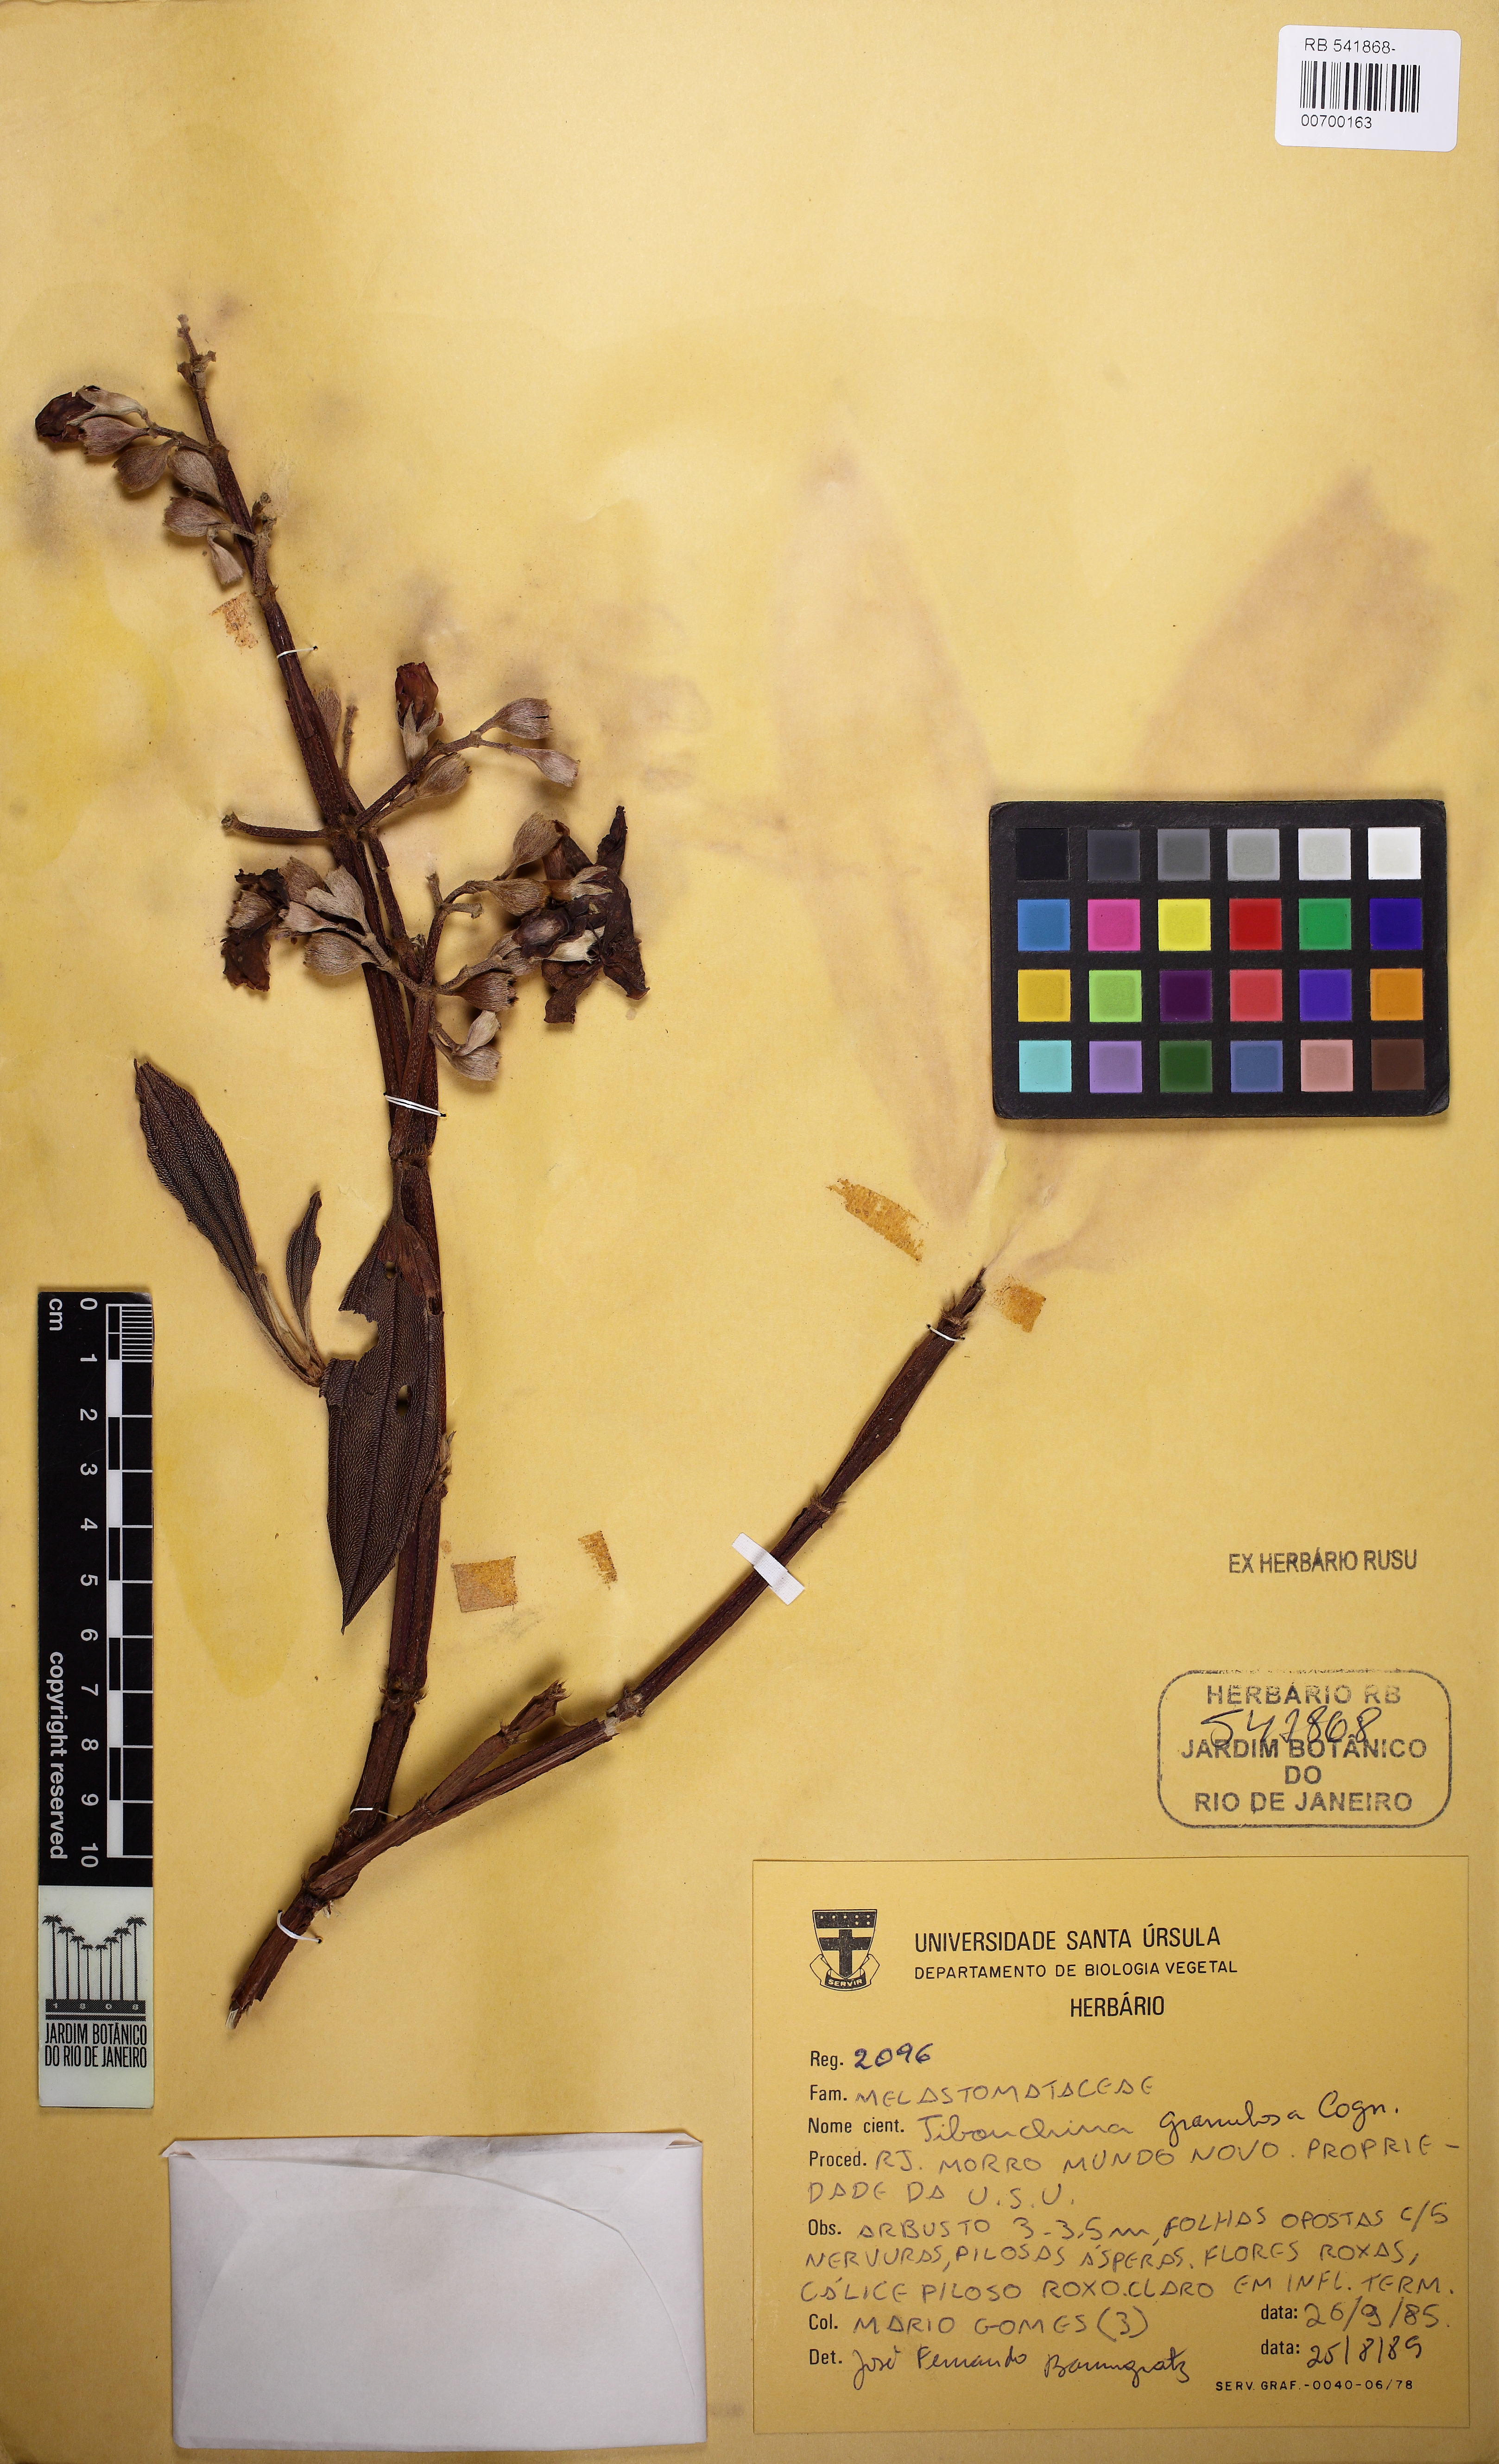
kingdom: Plantae
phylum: Tracheophyta
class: Magnoliopsida
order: Myrtales
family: Melastomataceae
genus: Pleroma
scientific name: Pleroma granulosum
